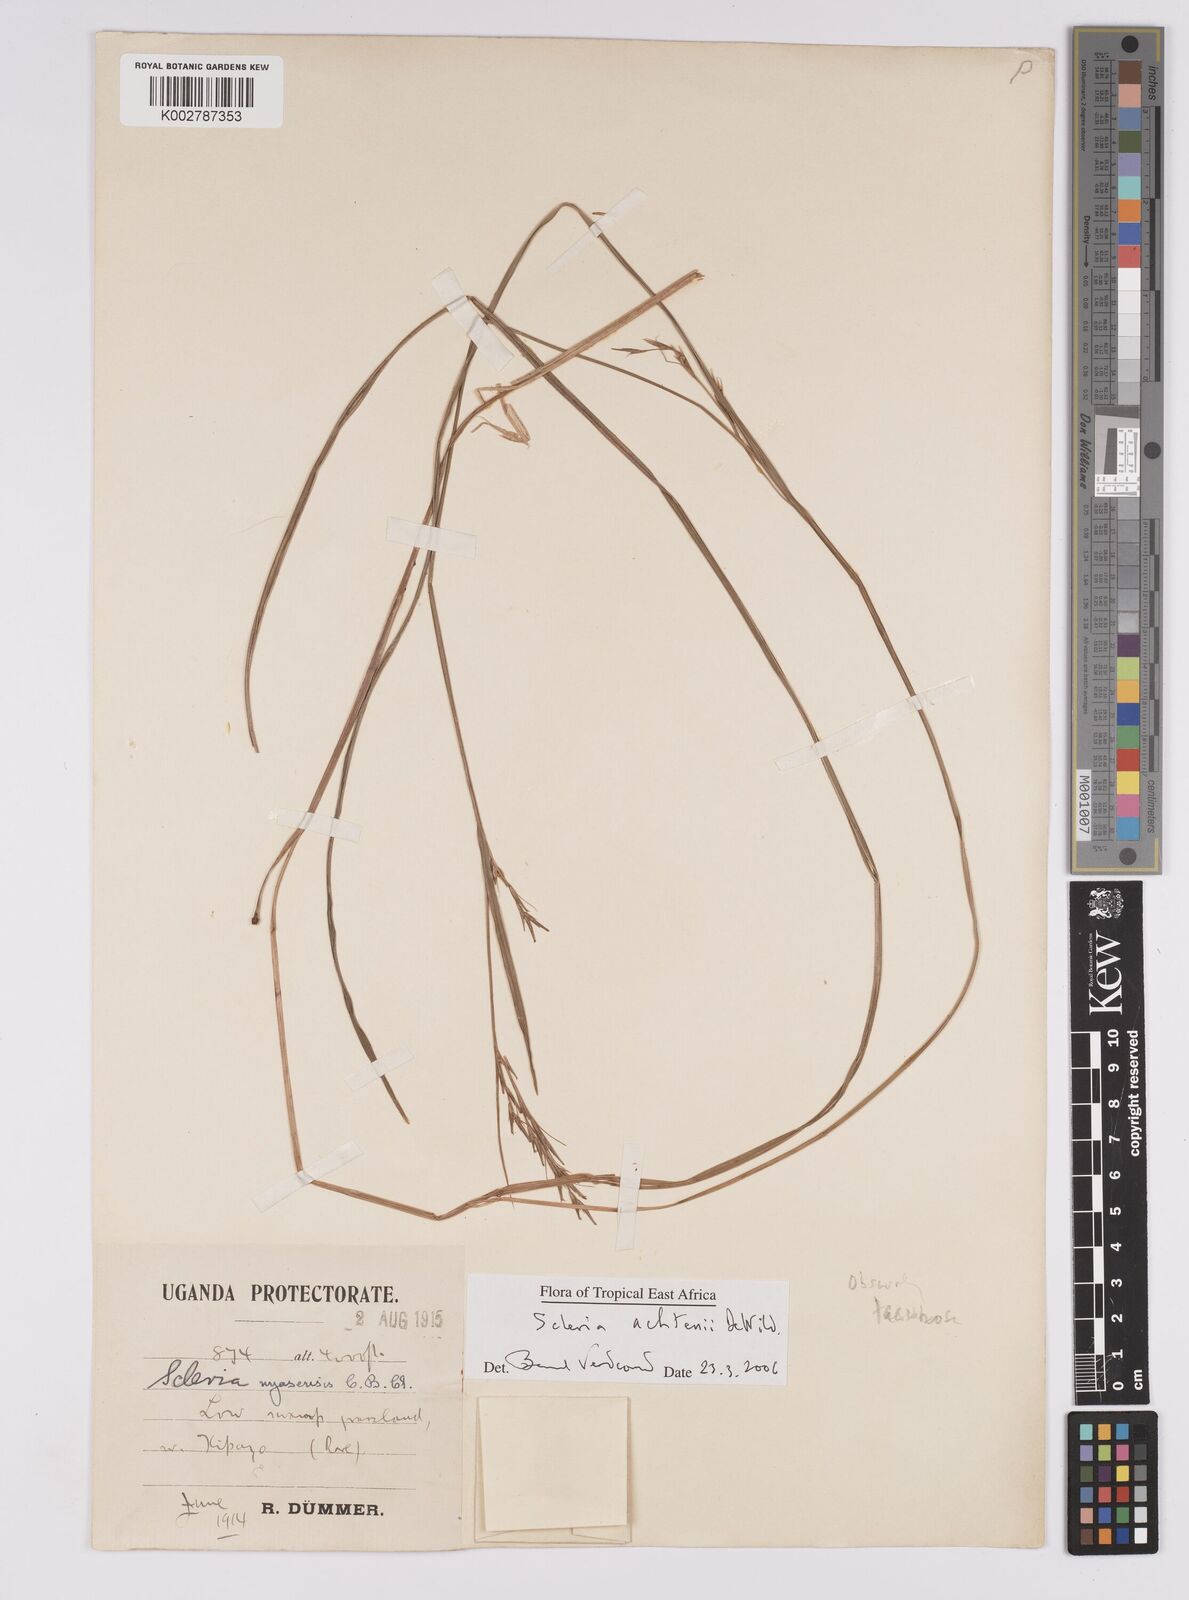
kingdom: Plantae
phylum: Tracheophyta
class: Liliopsida
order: Poales
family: Cyperaceae
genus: Scleria
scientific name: Scleria achtenii
